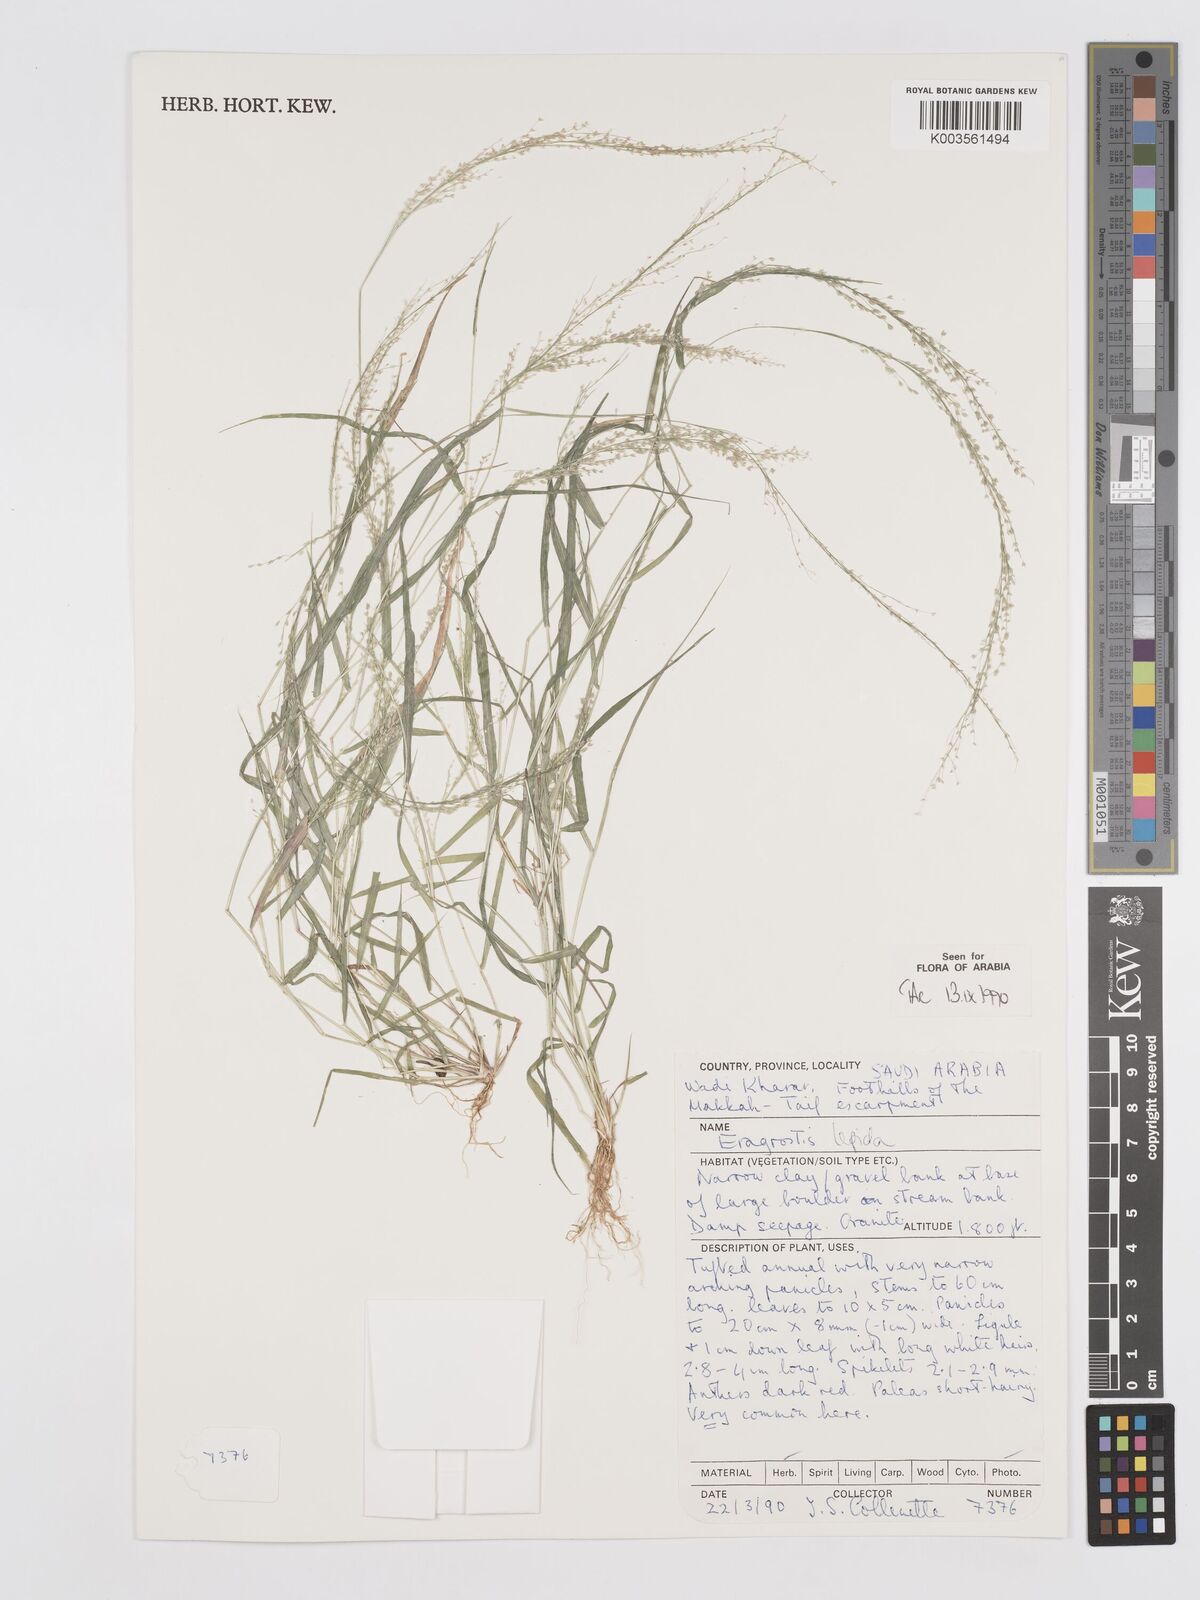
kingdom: Plantae
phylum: Tracheophyta
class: Liliopsida
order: Poales
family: Poaceae
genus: Eragrostis
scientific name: Eragrostis lepida
